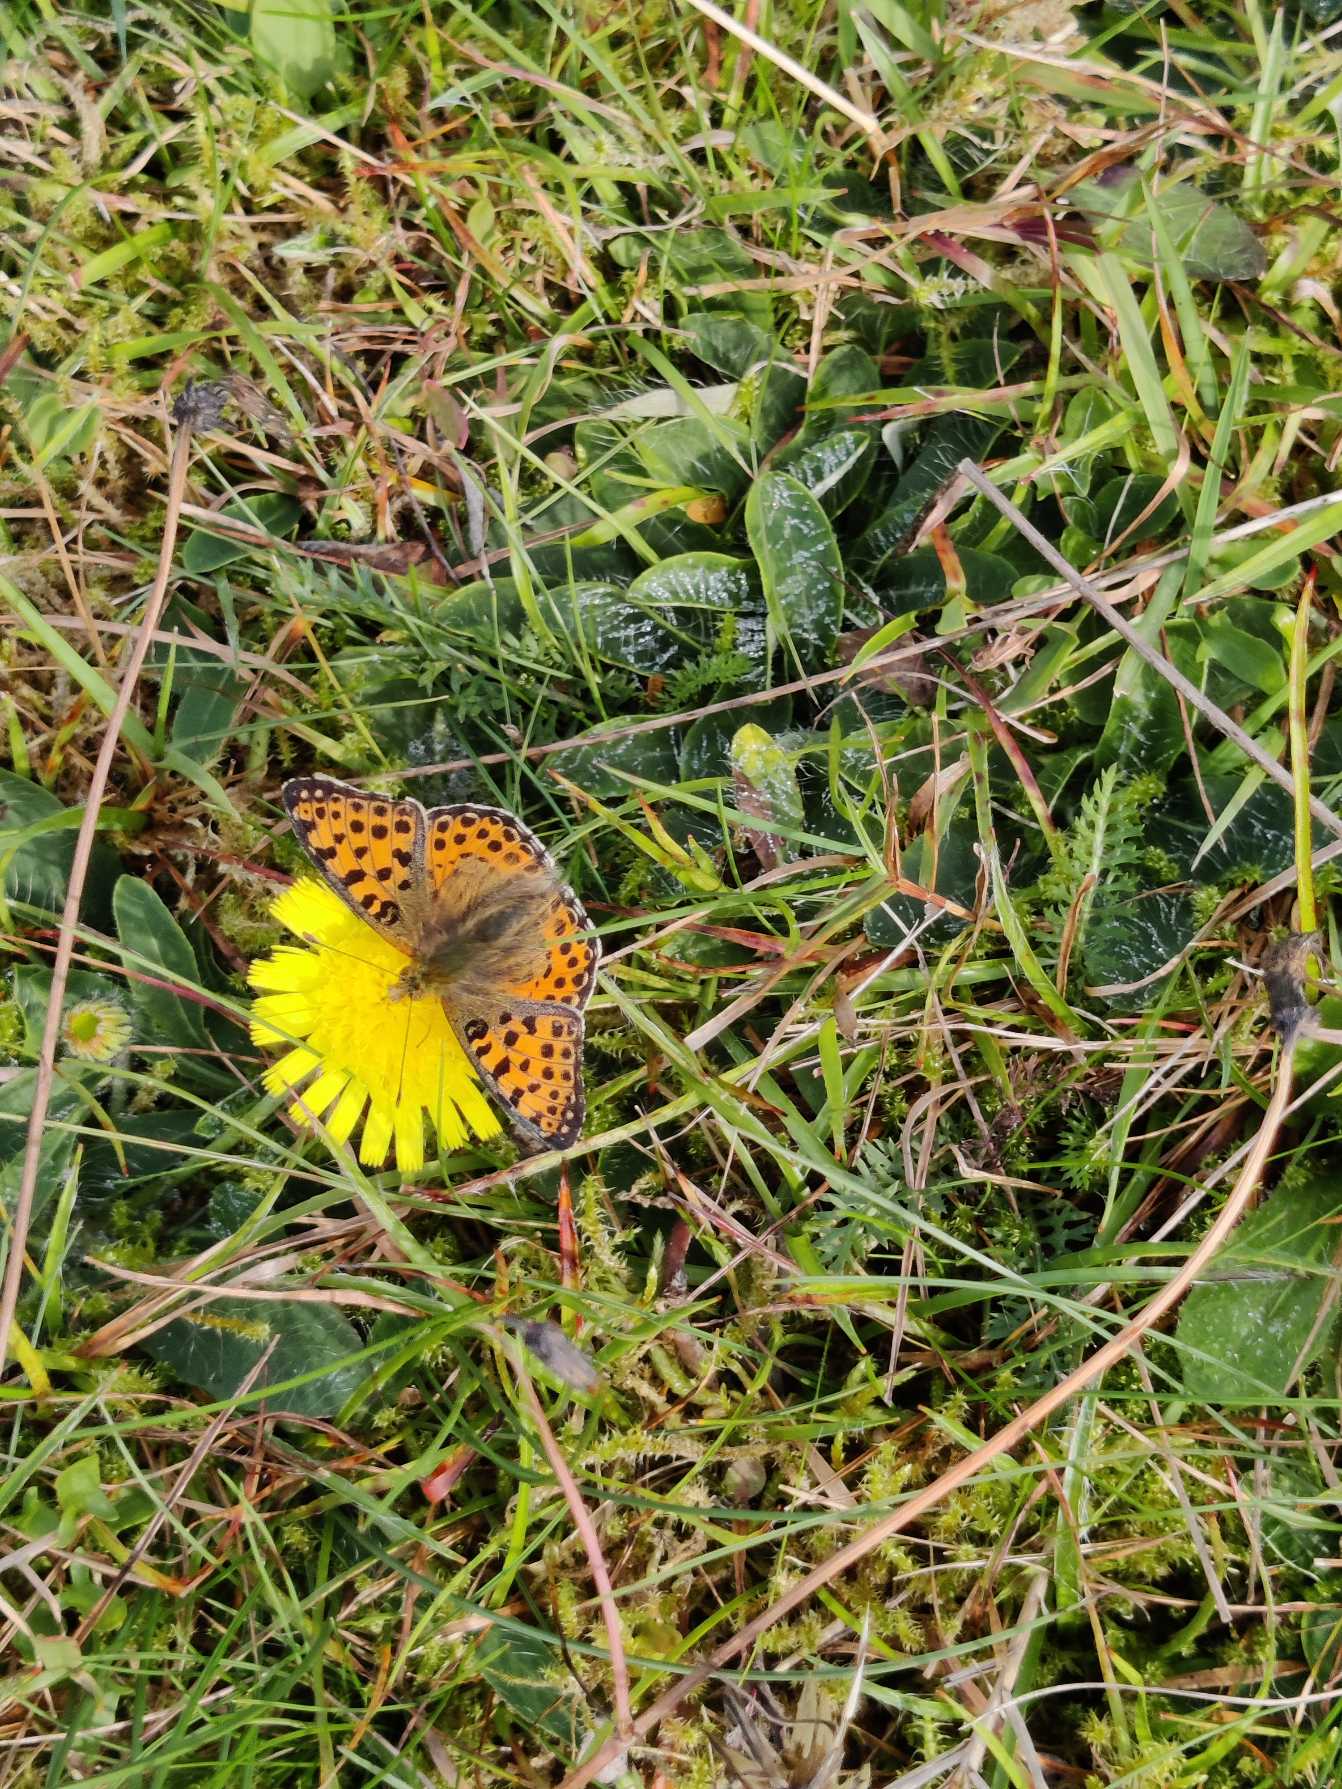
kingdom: Animalia
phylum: Arthropoda
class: Insecta
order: Lepidoptera
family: Nymphalidae
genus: Issoria
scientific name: Issoria lathonia
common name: Storplettet perlemorsommerfugl
